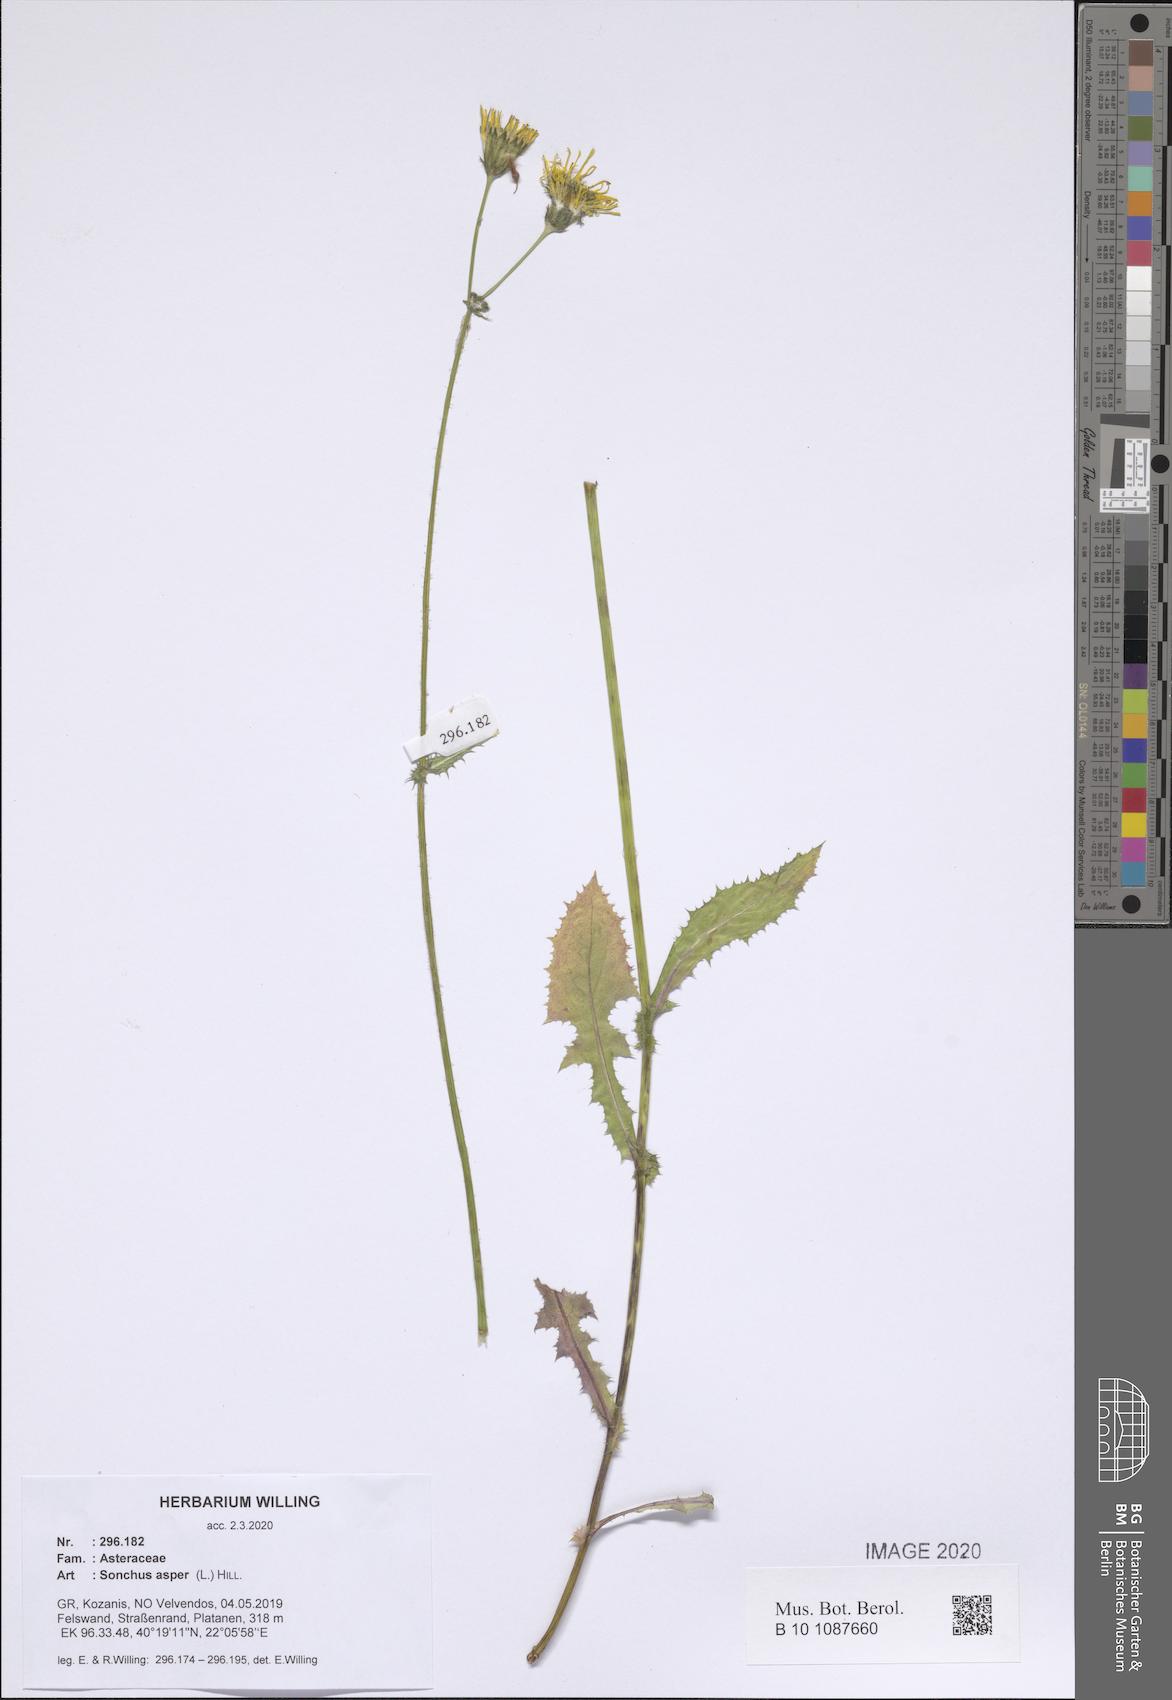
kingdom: Plantae
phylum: Tracheophyta
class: Magnoliopsida
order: Asterales
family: Asteraceae
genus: Sonchus
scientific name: Sonchus asper
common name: Prickly sow-thistle
